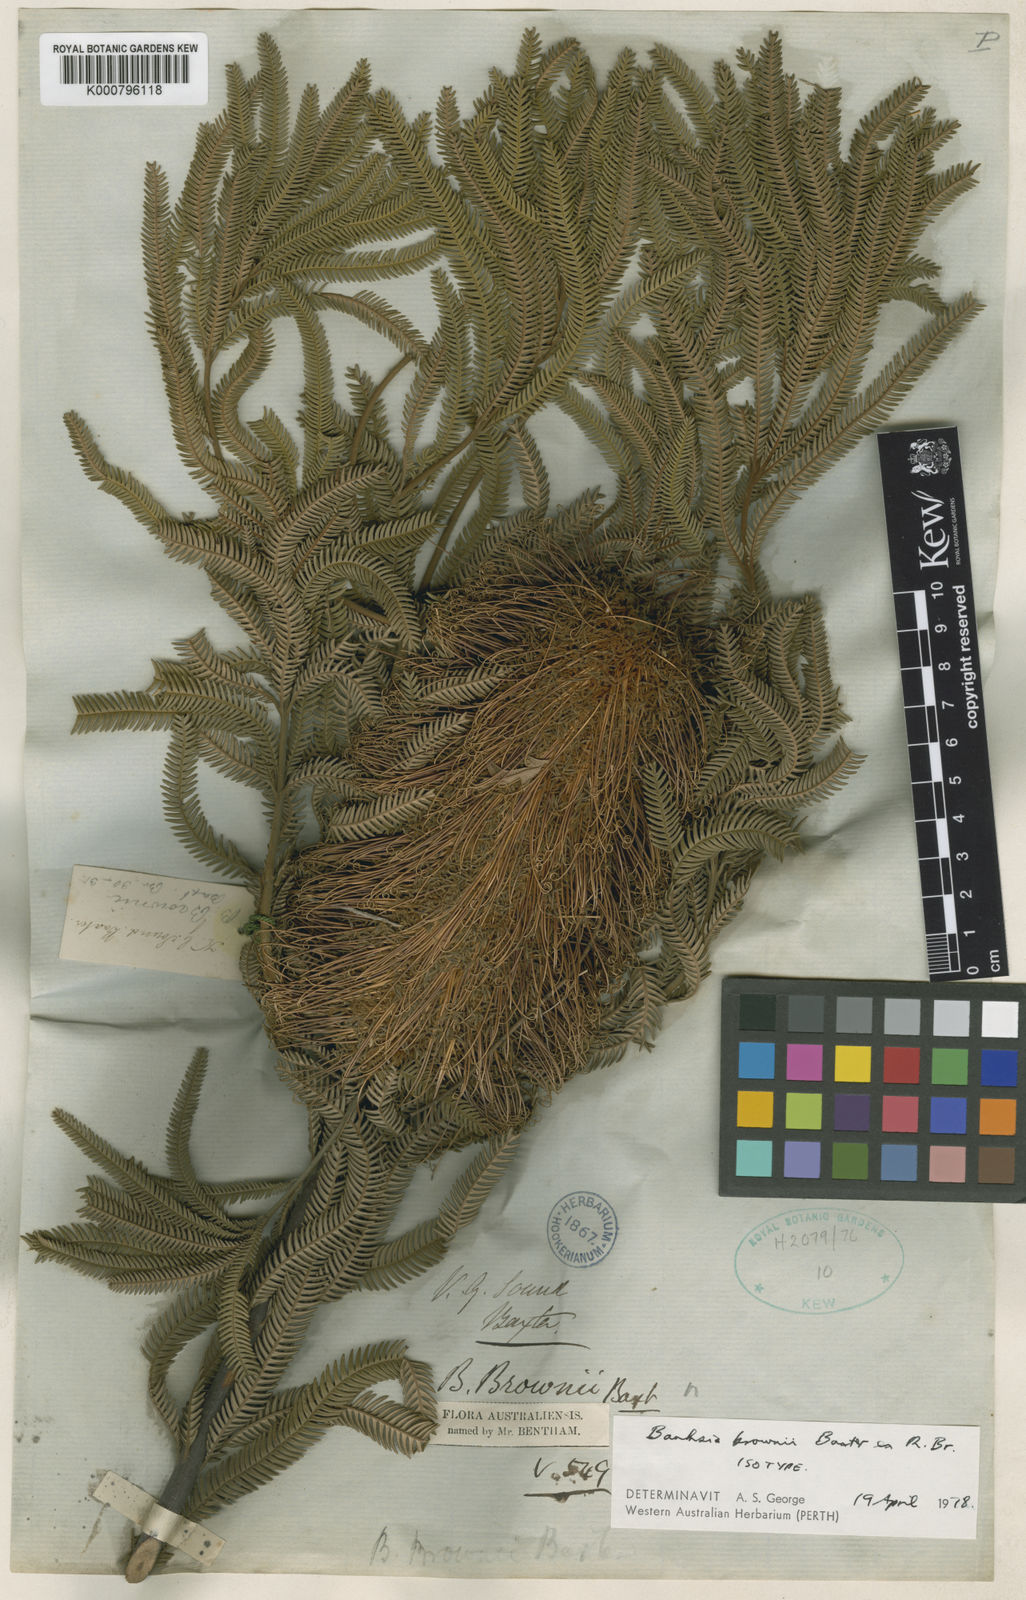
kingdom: Plantae
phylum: Tracheophyta
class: Magnoliopsida
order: Proteales
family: Proteaceae
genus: Banksia
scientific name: Banksia brownii
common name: Brown’s banksia
